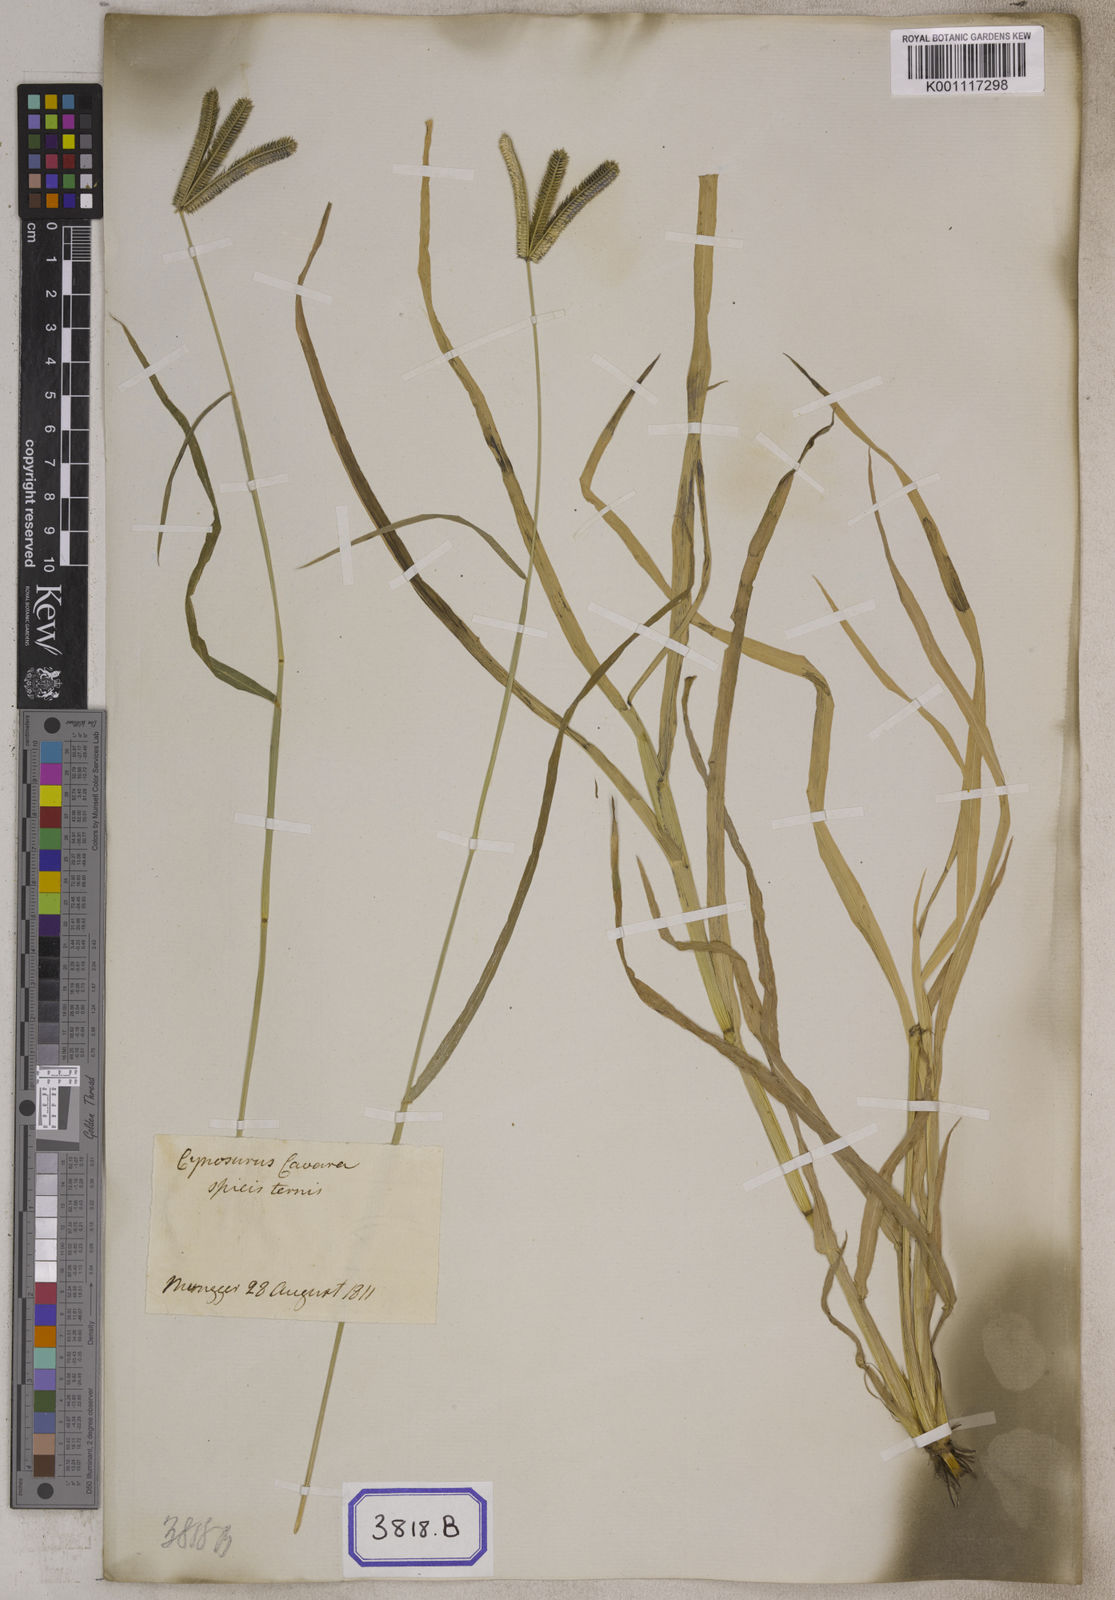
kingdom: Plantae
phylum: Tracheophyta
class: Liliopsida
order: Poales
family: Poaceae
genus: Eleusine
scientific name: Eleusine
